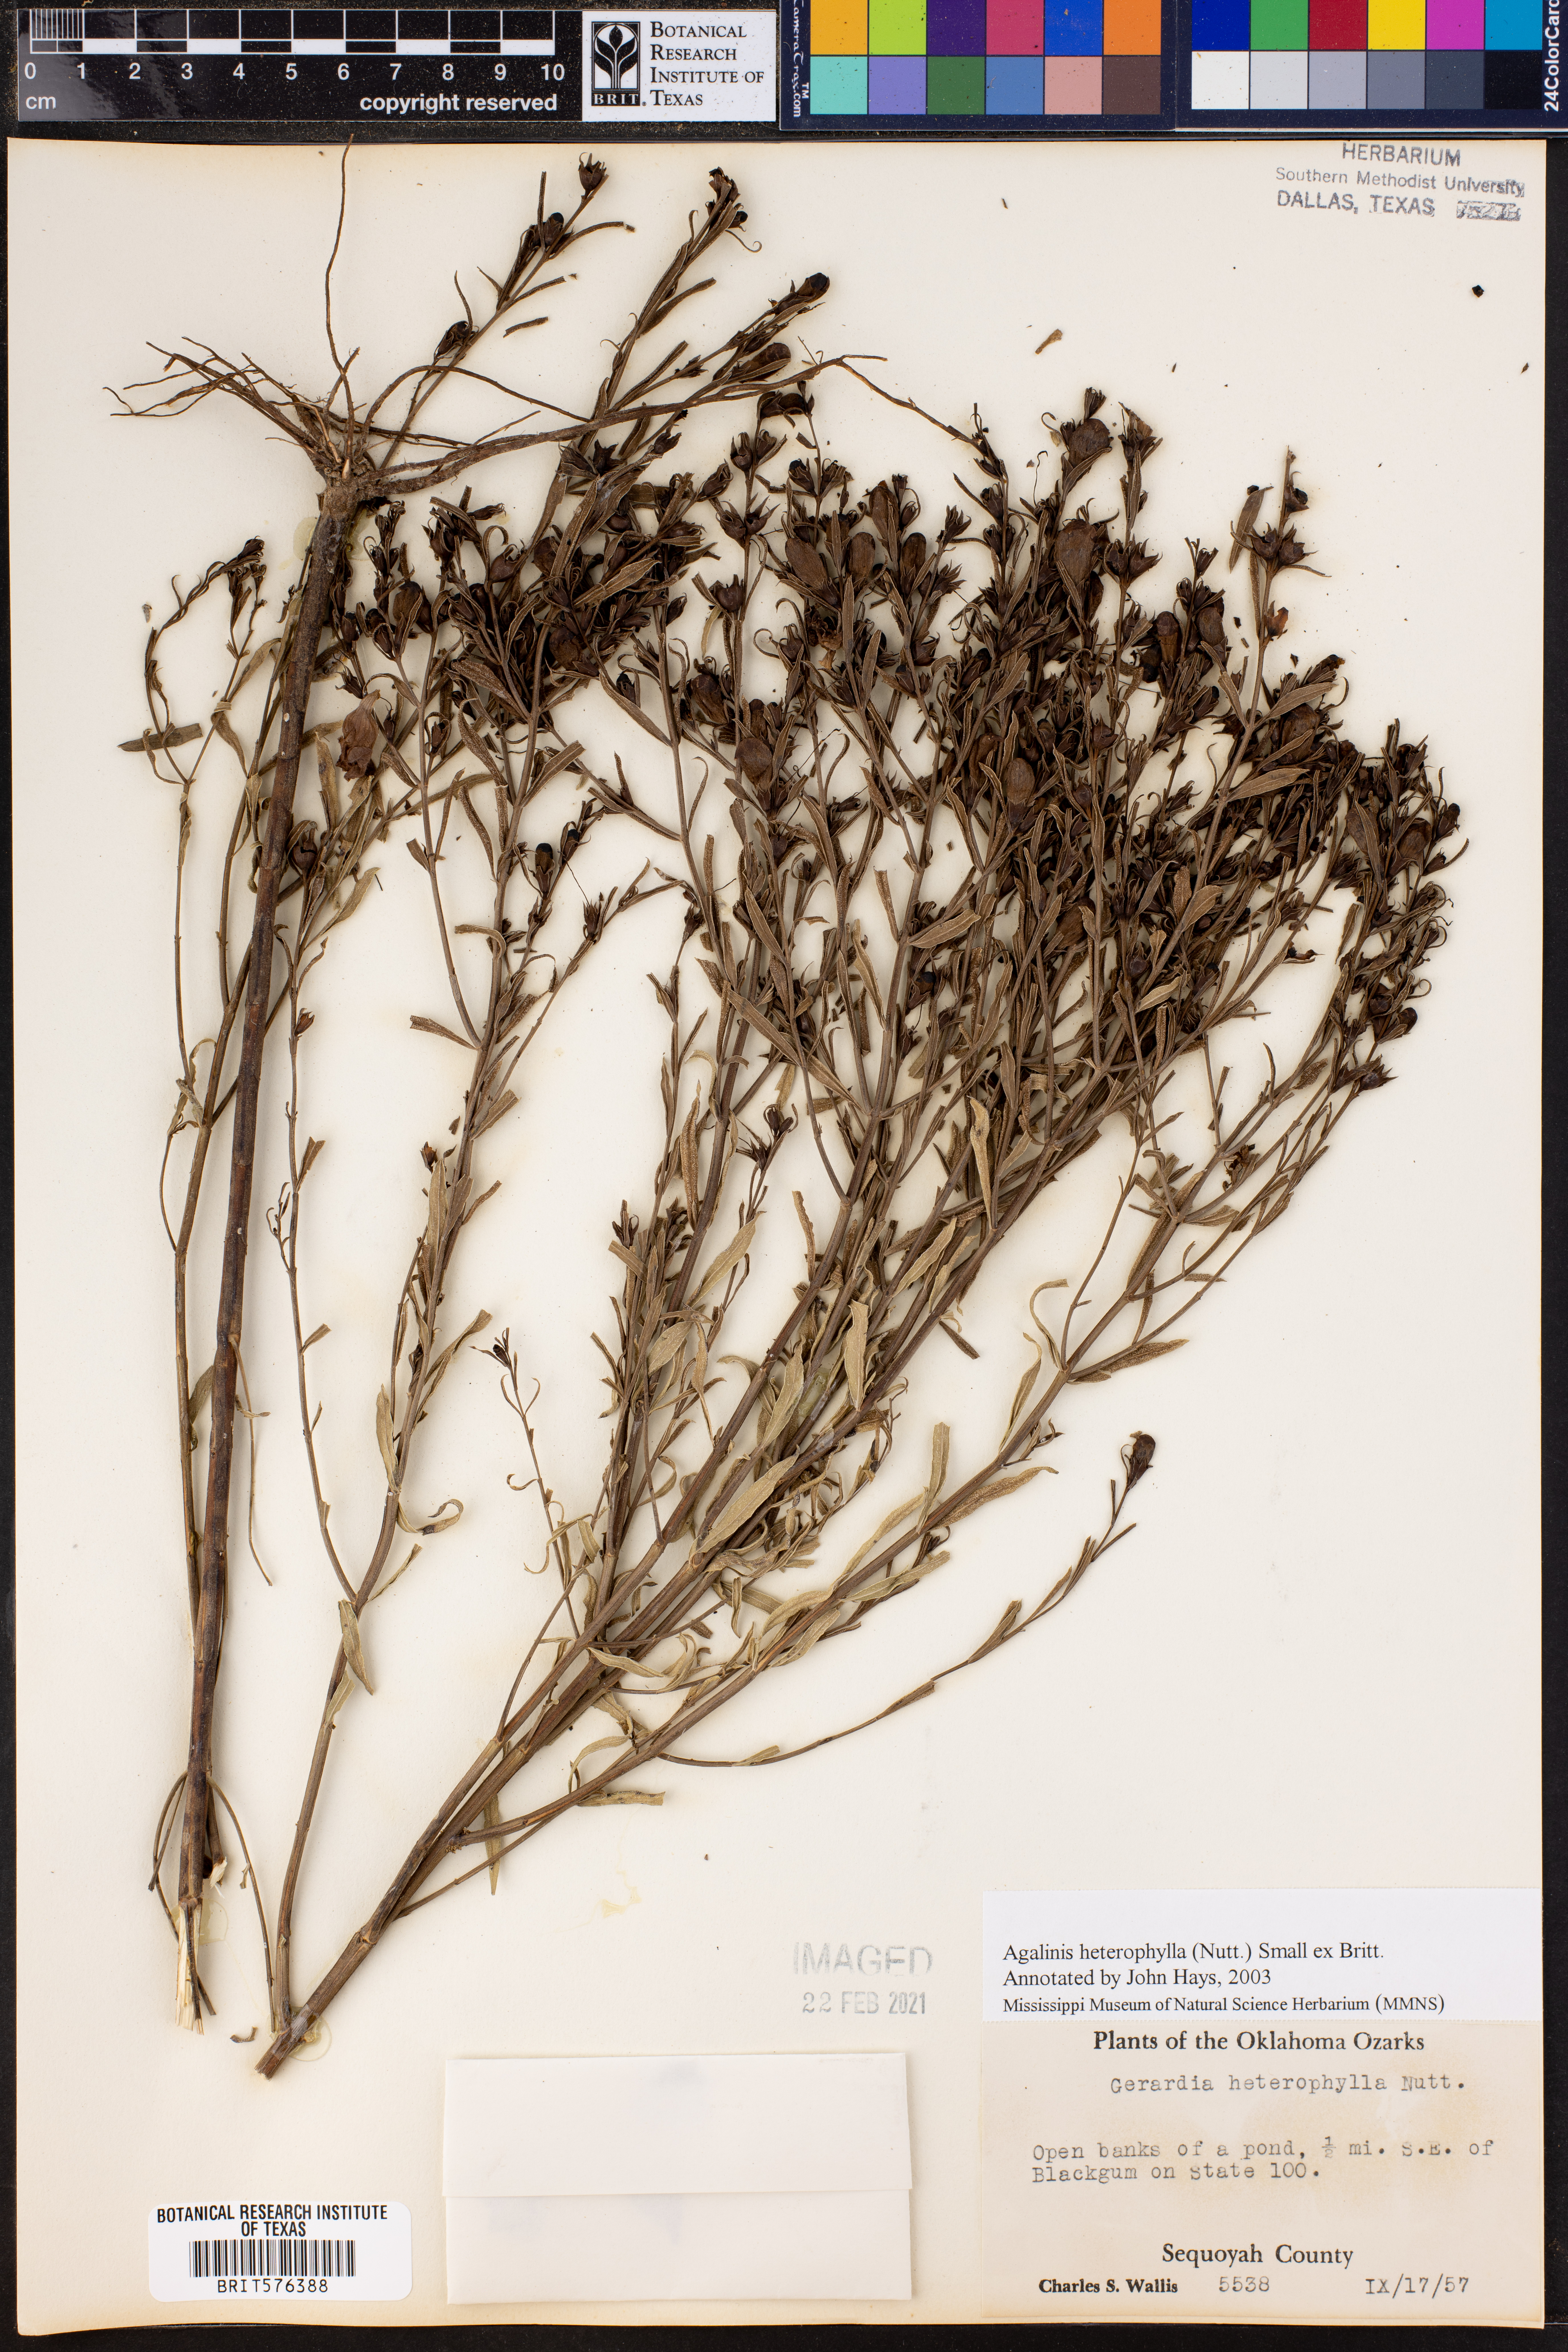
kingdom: Plantae
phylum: Tracheophyta
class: Magnoliopsida
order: Lamiales
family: Orobanchaceae
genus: Agalinis
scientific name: Agalinis heterophylla
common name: Prairie agalinis
